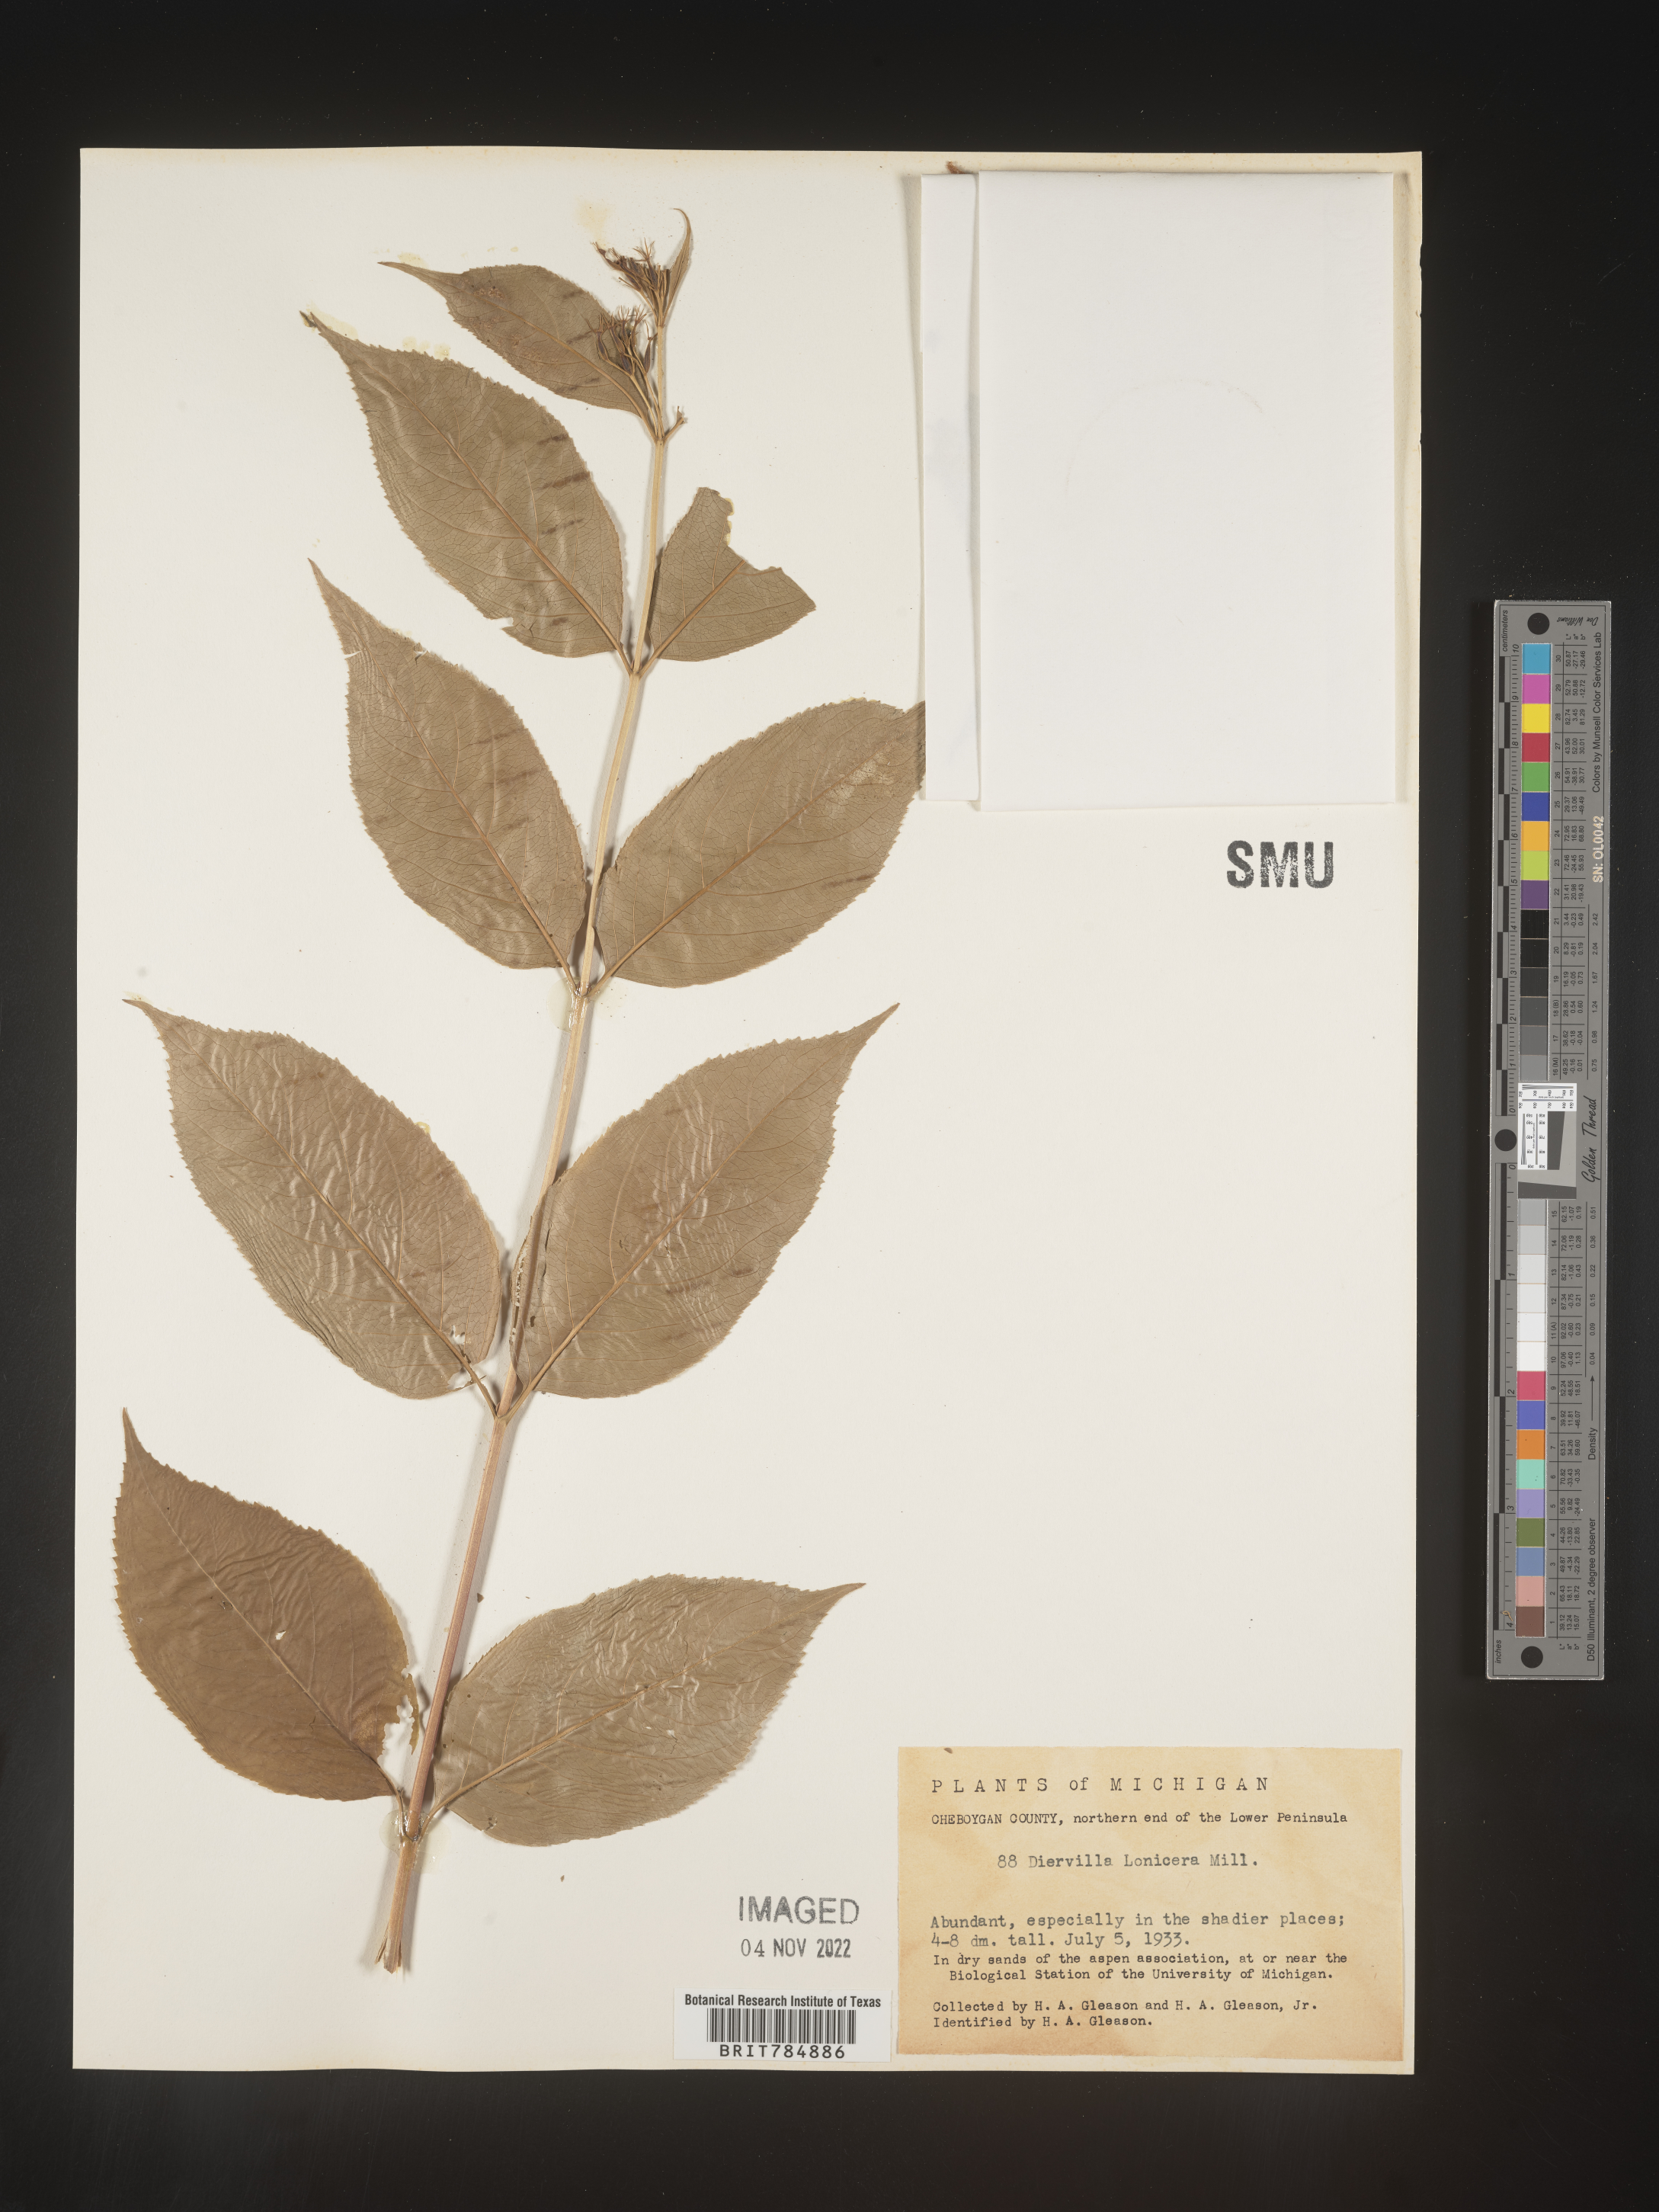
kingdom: Plantae
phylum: Tracheophyta
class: Magnoliopsida
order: Dipsacales
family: Caprifoliaceae
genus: Diervilla
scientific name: Diervilla lonicera
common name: Bush-honeysuckle
